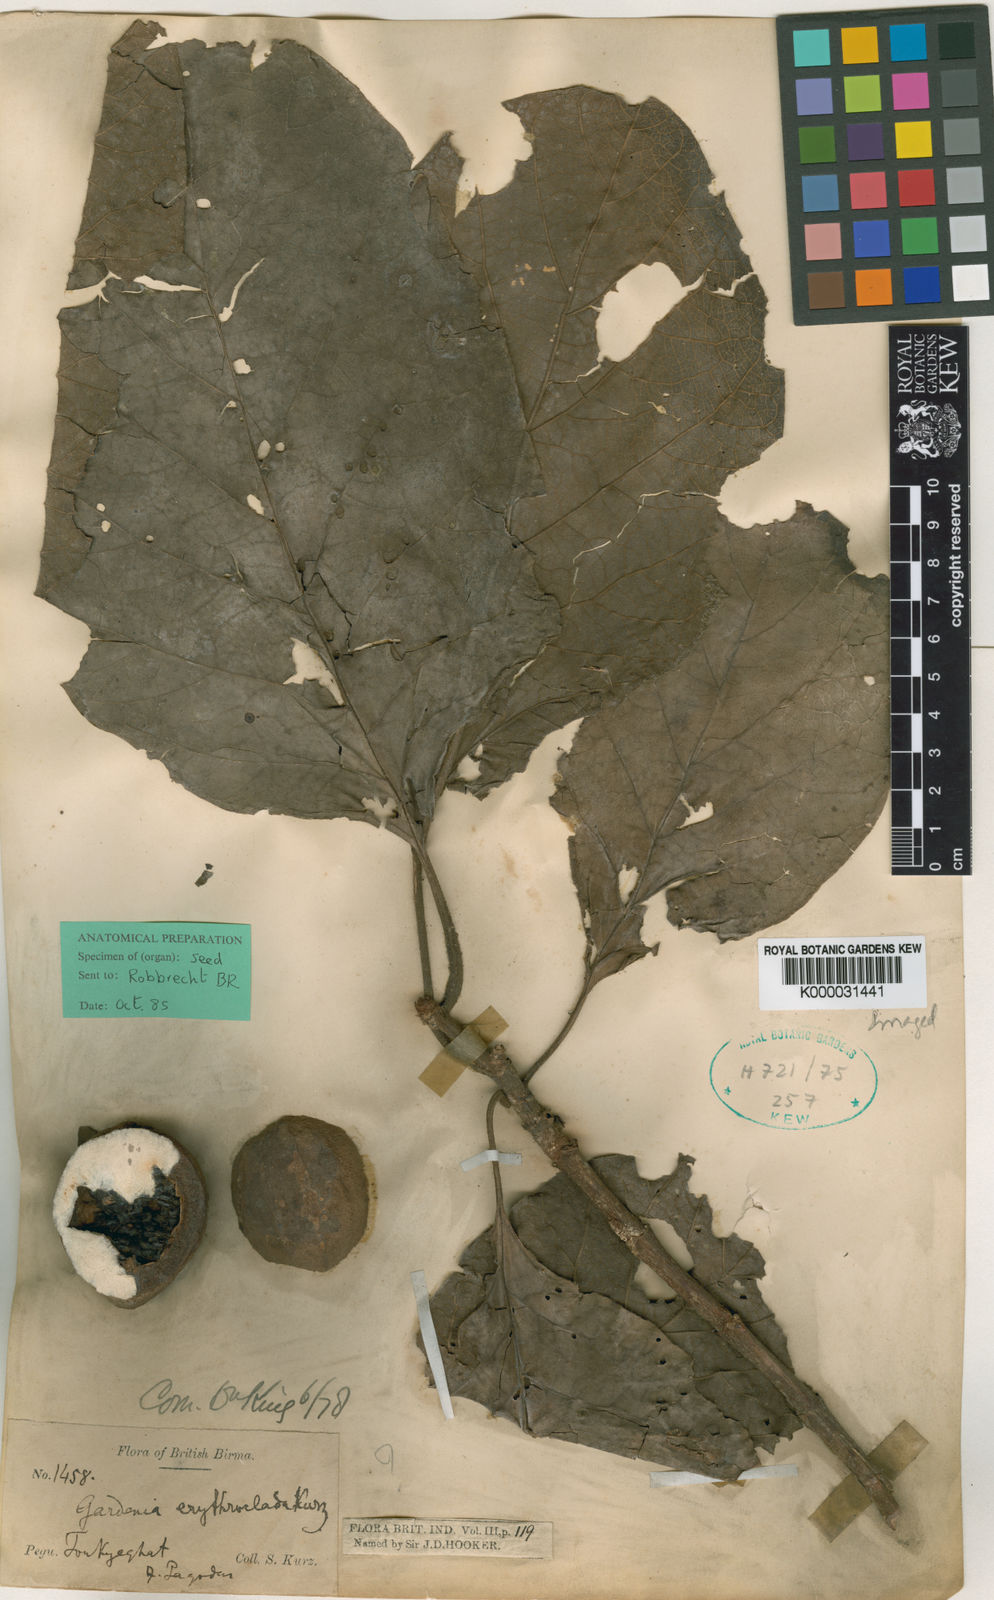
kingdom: Plantae
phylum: Tracheophyta
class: Magnoliopsida
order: Gentianales
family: Rubiaceae
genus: Dioecrescis
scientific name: Dioecrescis erythroclada
